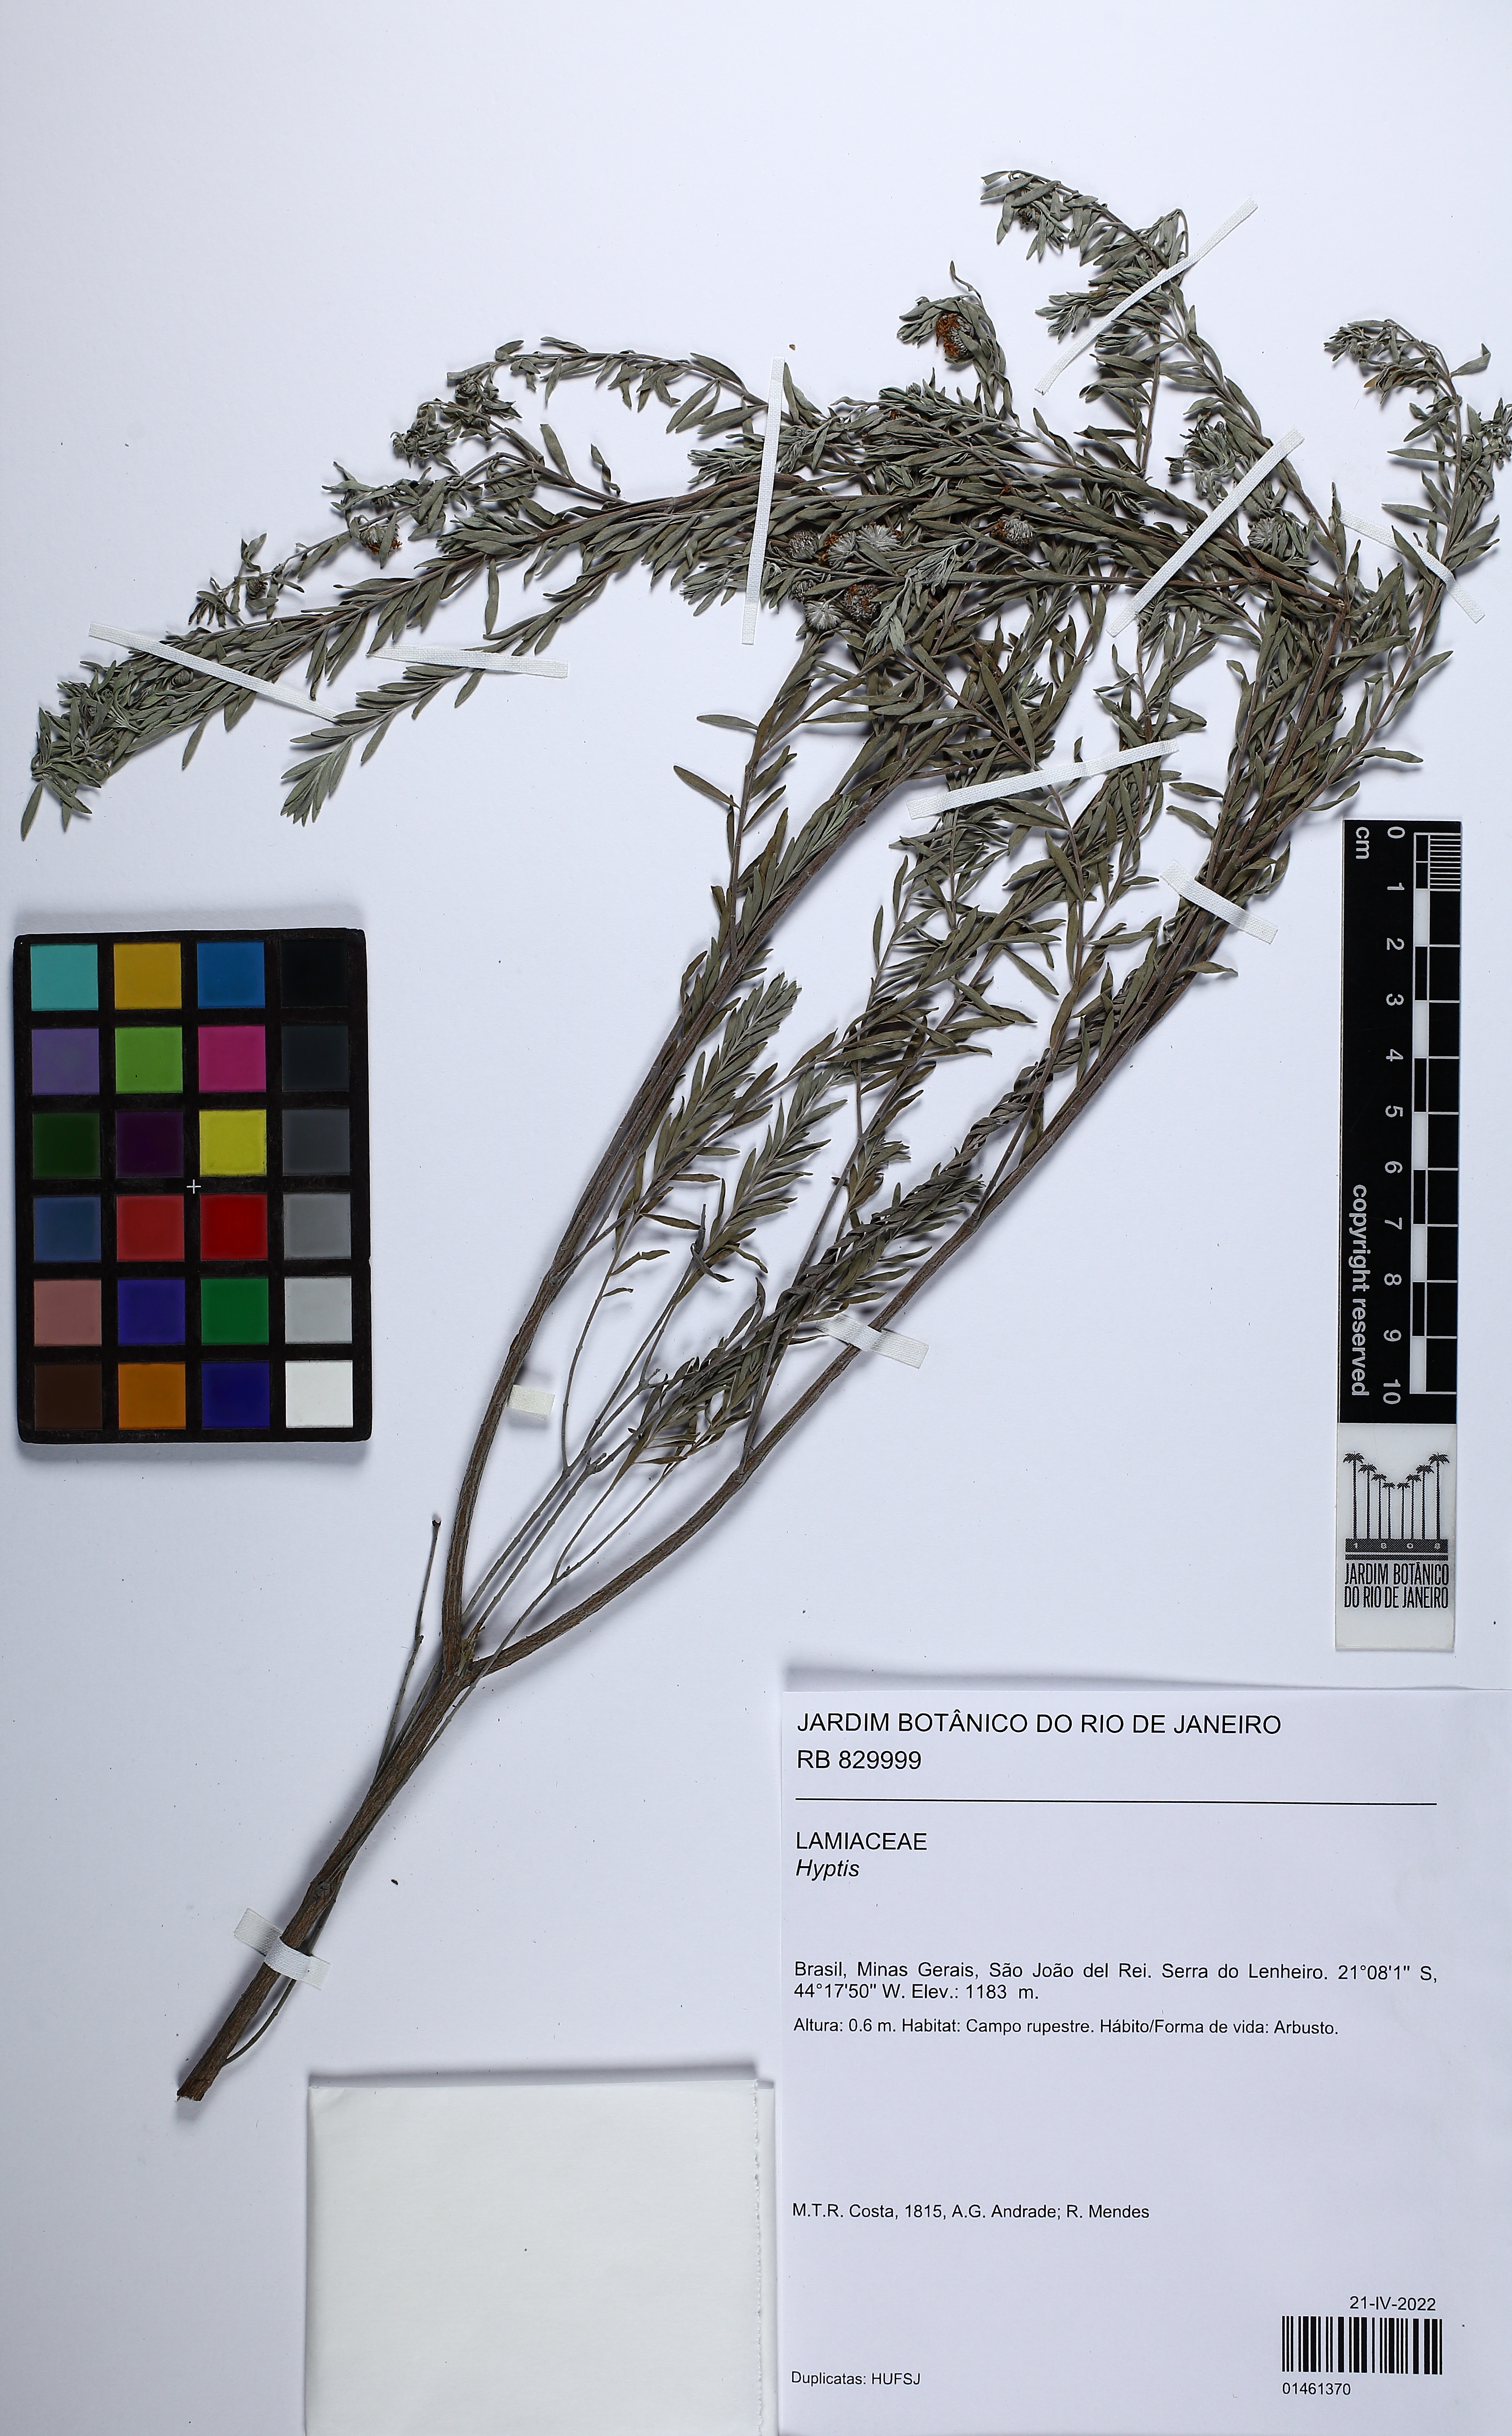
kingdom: Plantae
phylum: Tracheophyta
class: Magnoliopsida
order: Lamiales
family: Lamiaceae
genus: Hyptis
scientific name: Hyptis passerina
